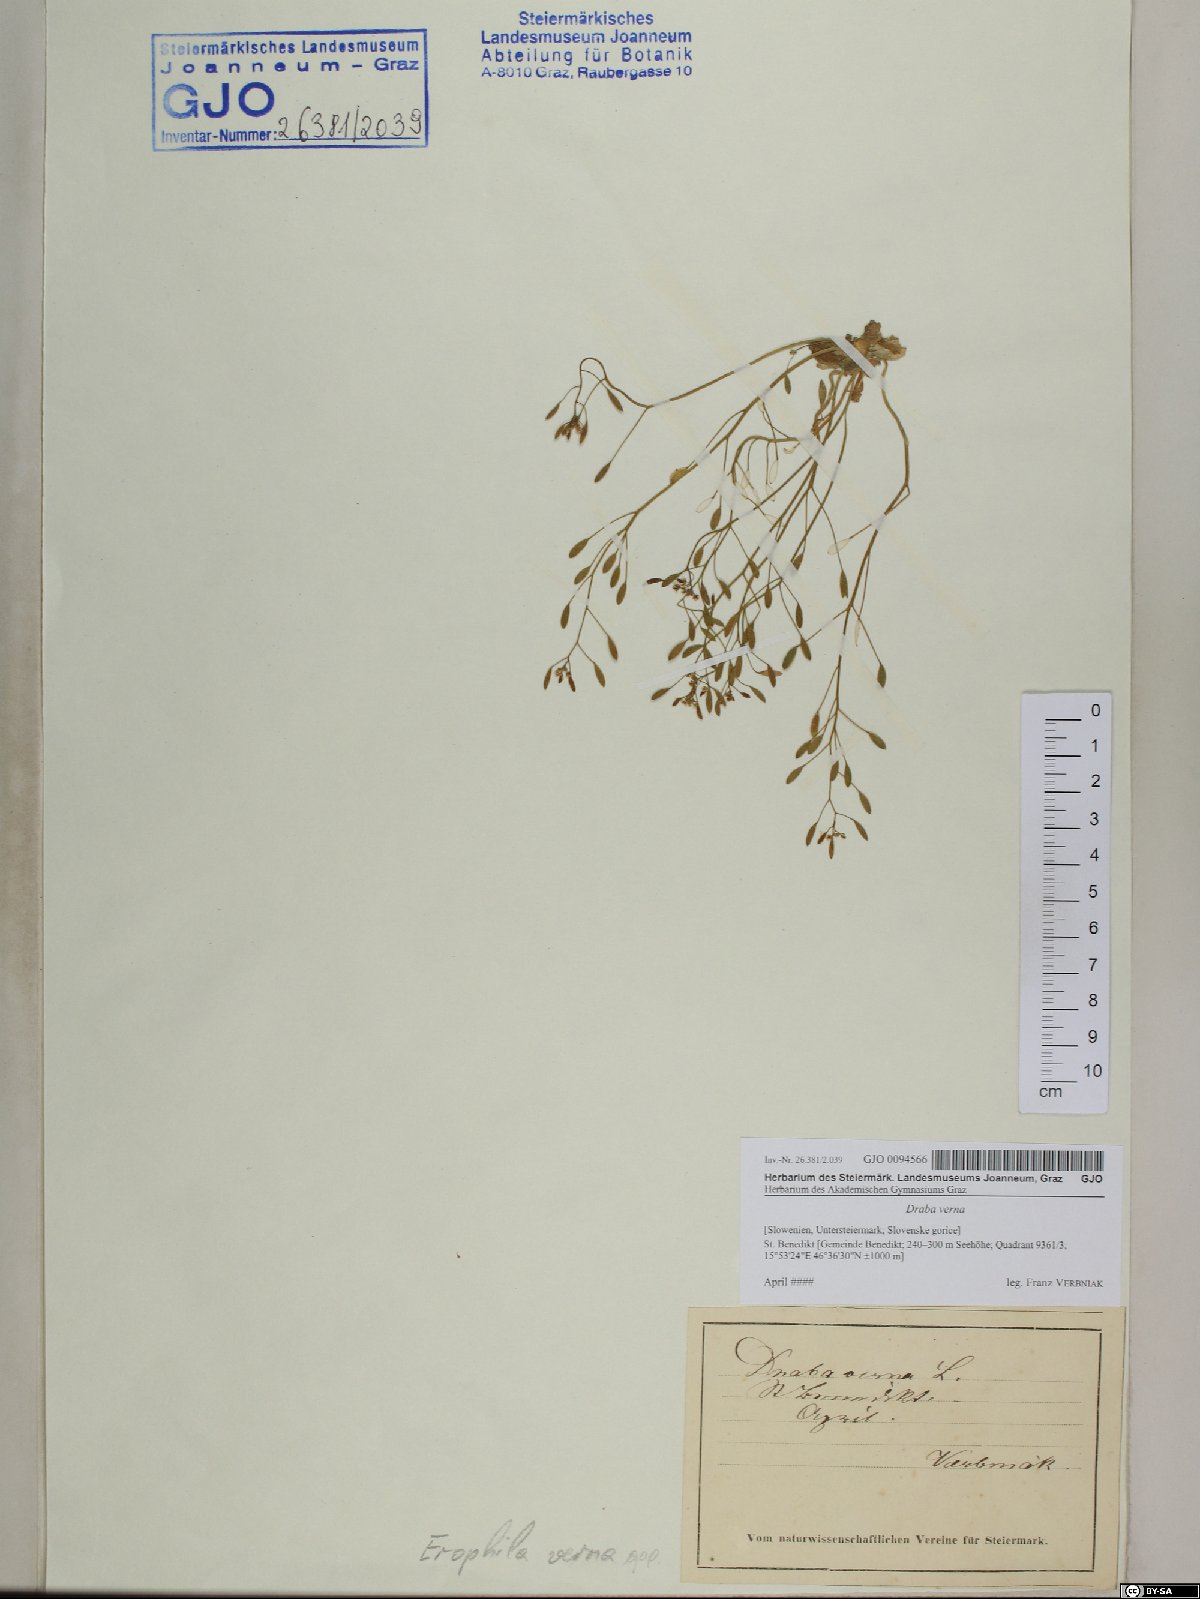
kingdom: Plantae
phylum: Tracheophyta
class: Magnoliopsida
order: Brassicales
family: Brassicaceae
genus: Draba
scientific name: Draba verna
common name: Spring draba
